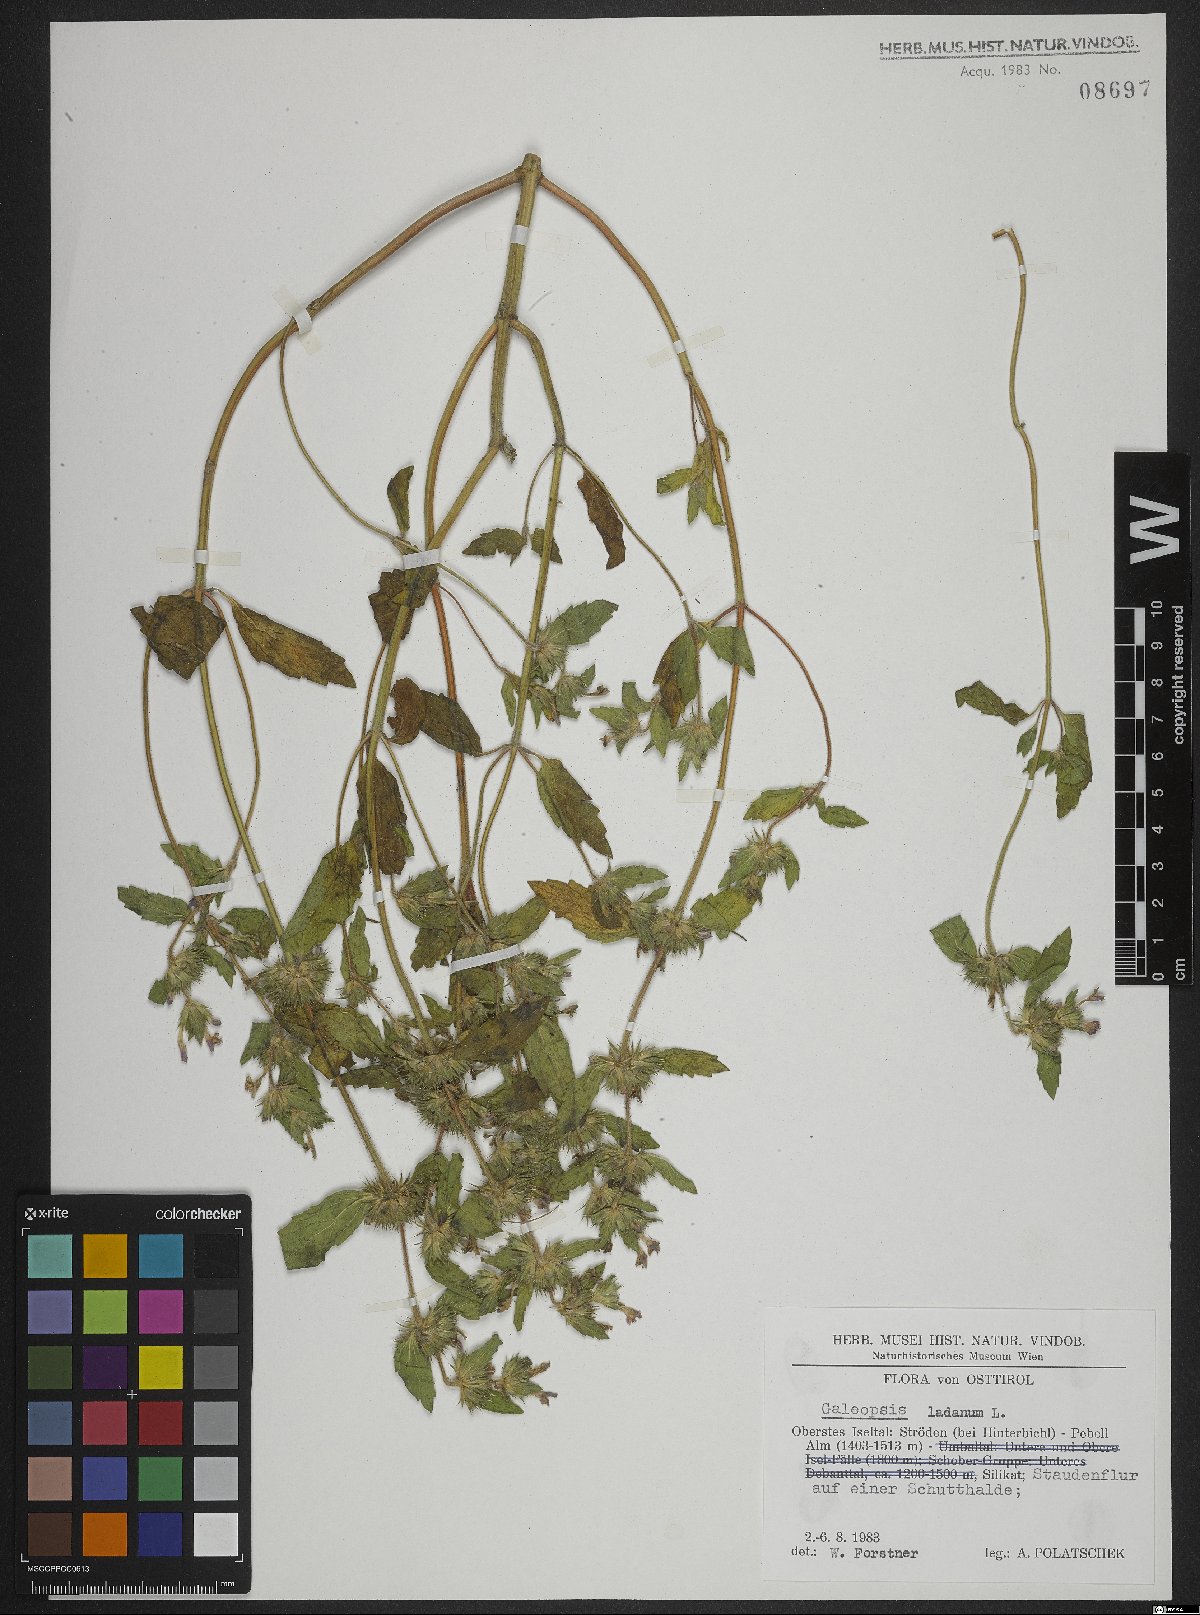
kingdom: Plantae
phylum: Tracheophyta
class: Magnoliopsida
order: Lamiales
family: Lamiaceae
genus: Galeopsis
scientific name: Galeopsis ladanum
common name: Broad-leaved hemp-nettle
